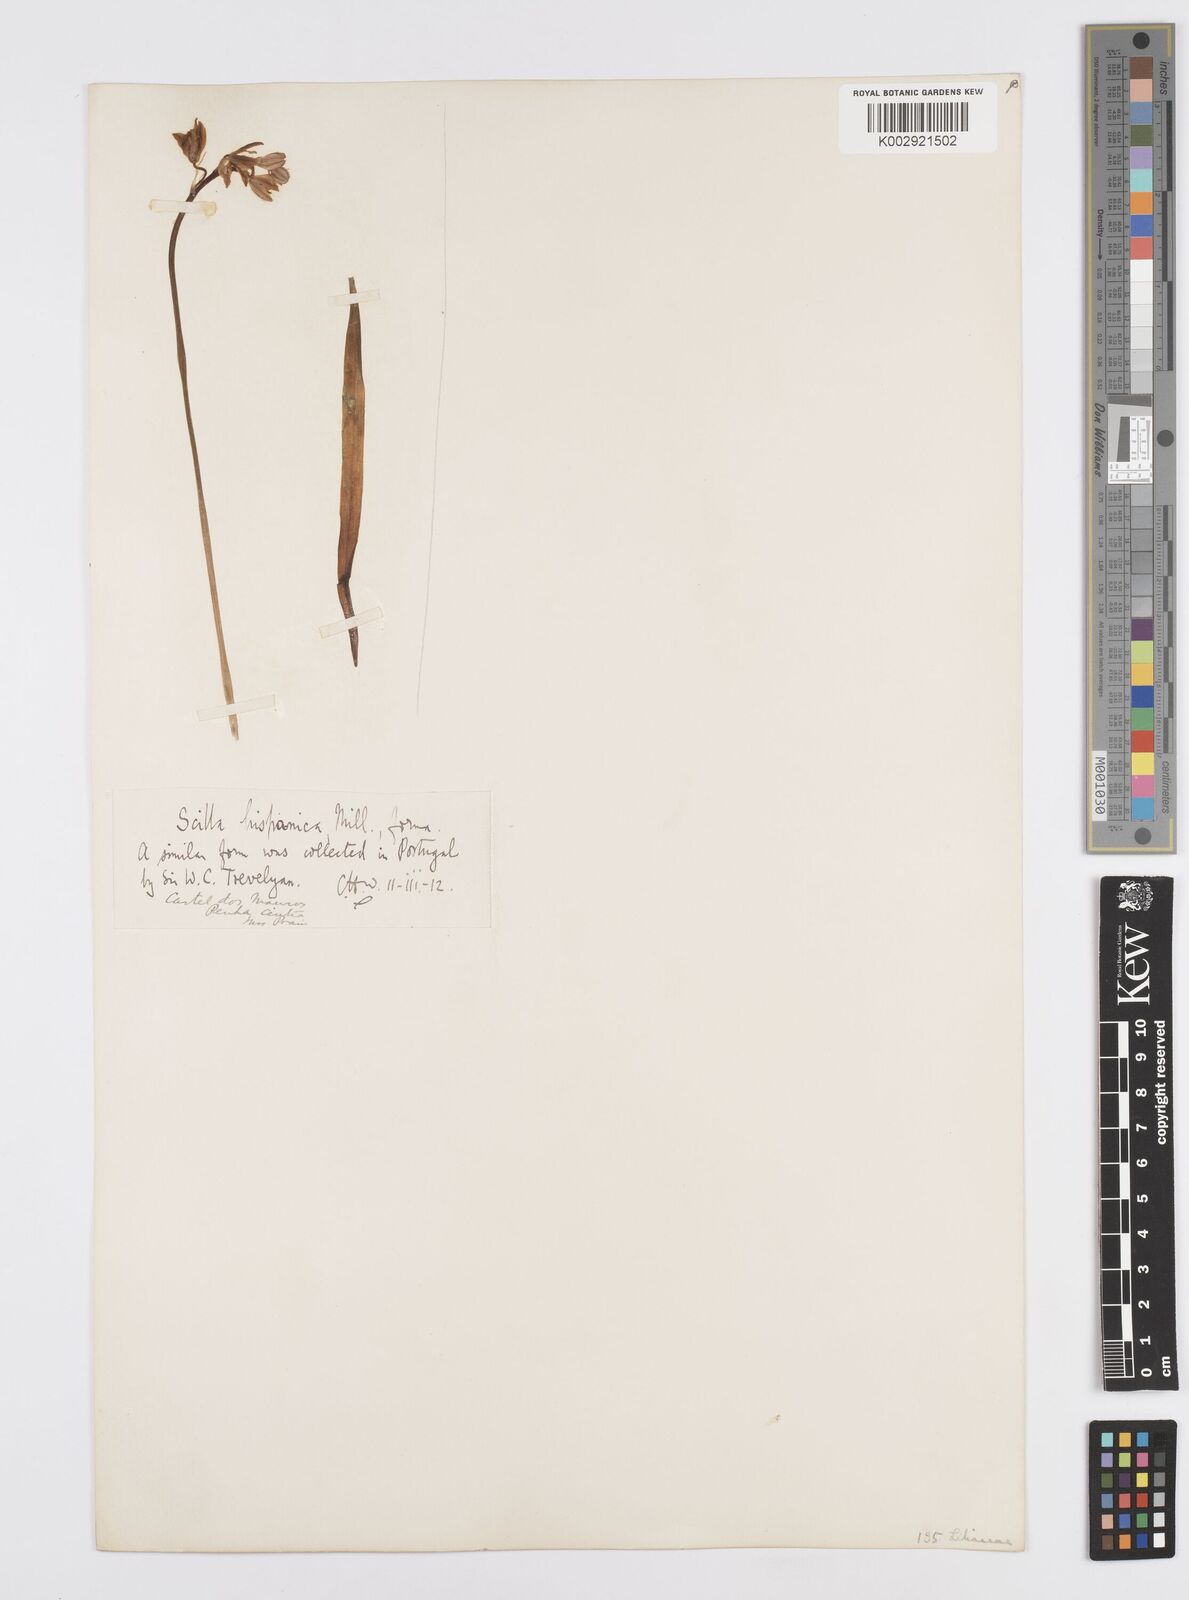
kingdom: Plantae
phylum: Tracheophyta
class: Liliopsida
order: Asparagales
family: Asparagaceae
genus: Hyacinthoides
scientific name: Hyacinthoides hispanica
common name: Spanish bluebell
